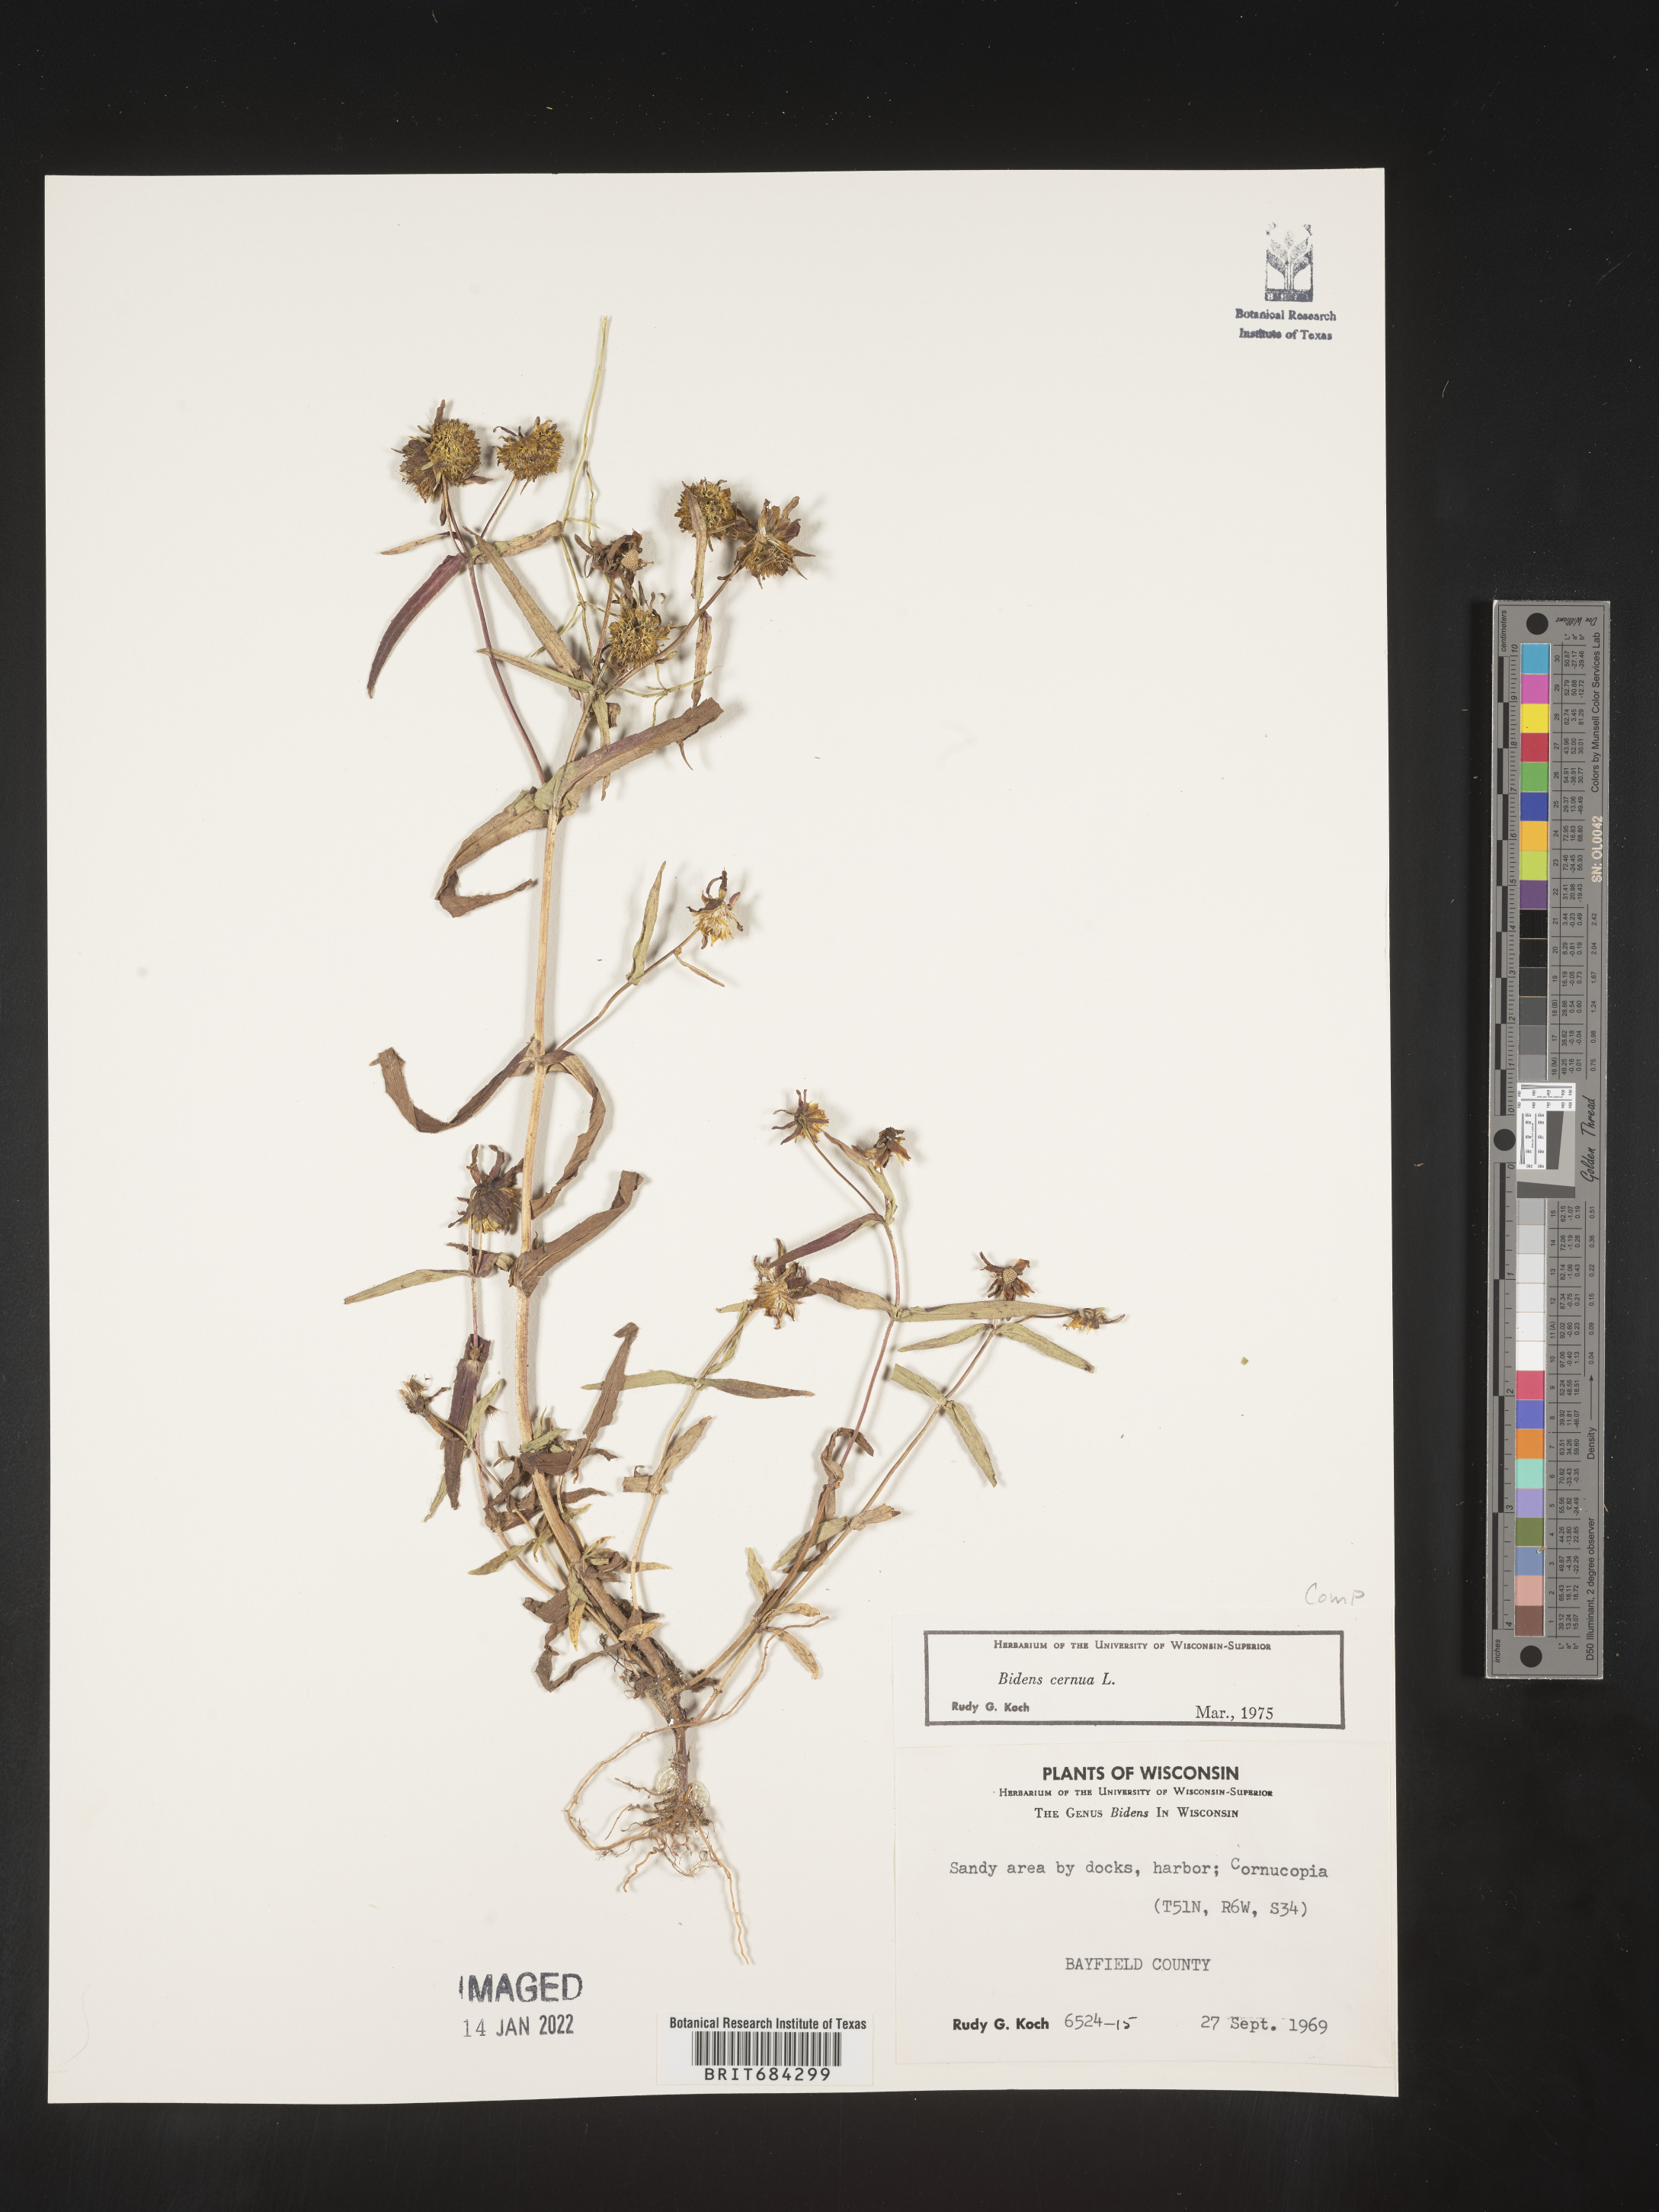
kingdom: Plantae
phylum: Tracheophyta
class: Magnoliopsida
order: Asterales
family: Asteraceae
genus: Bidens
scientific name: Bidens cernua
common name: Nodding bur-marigold
